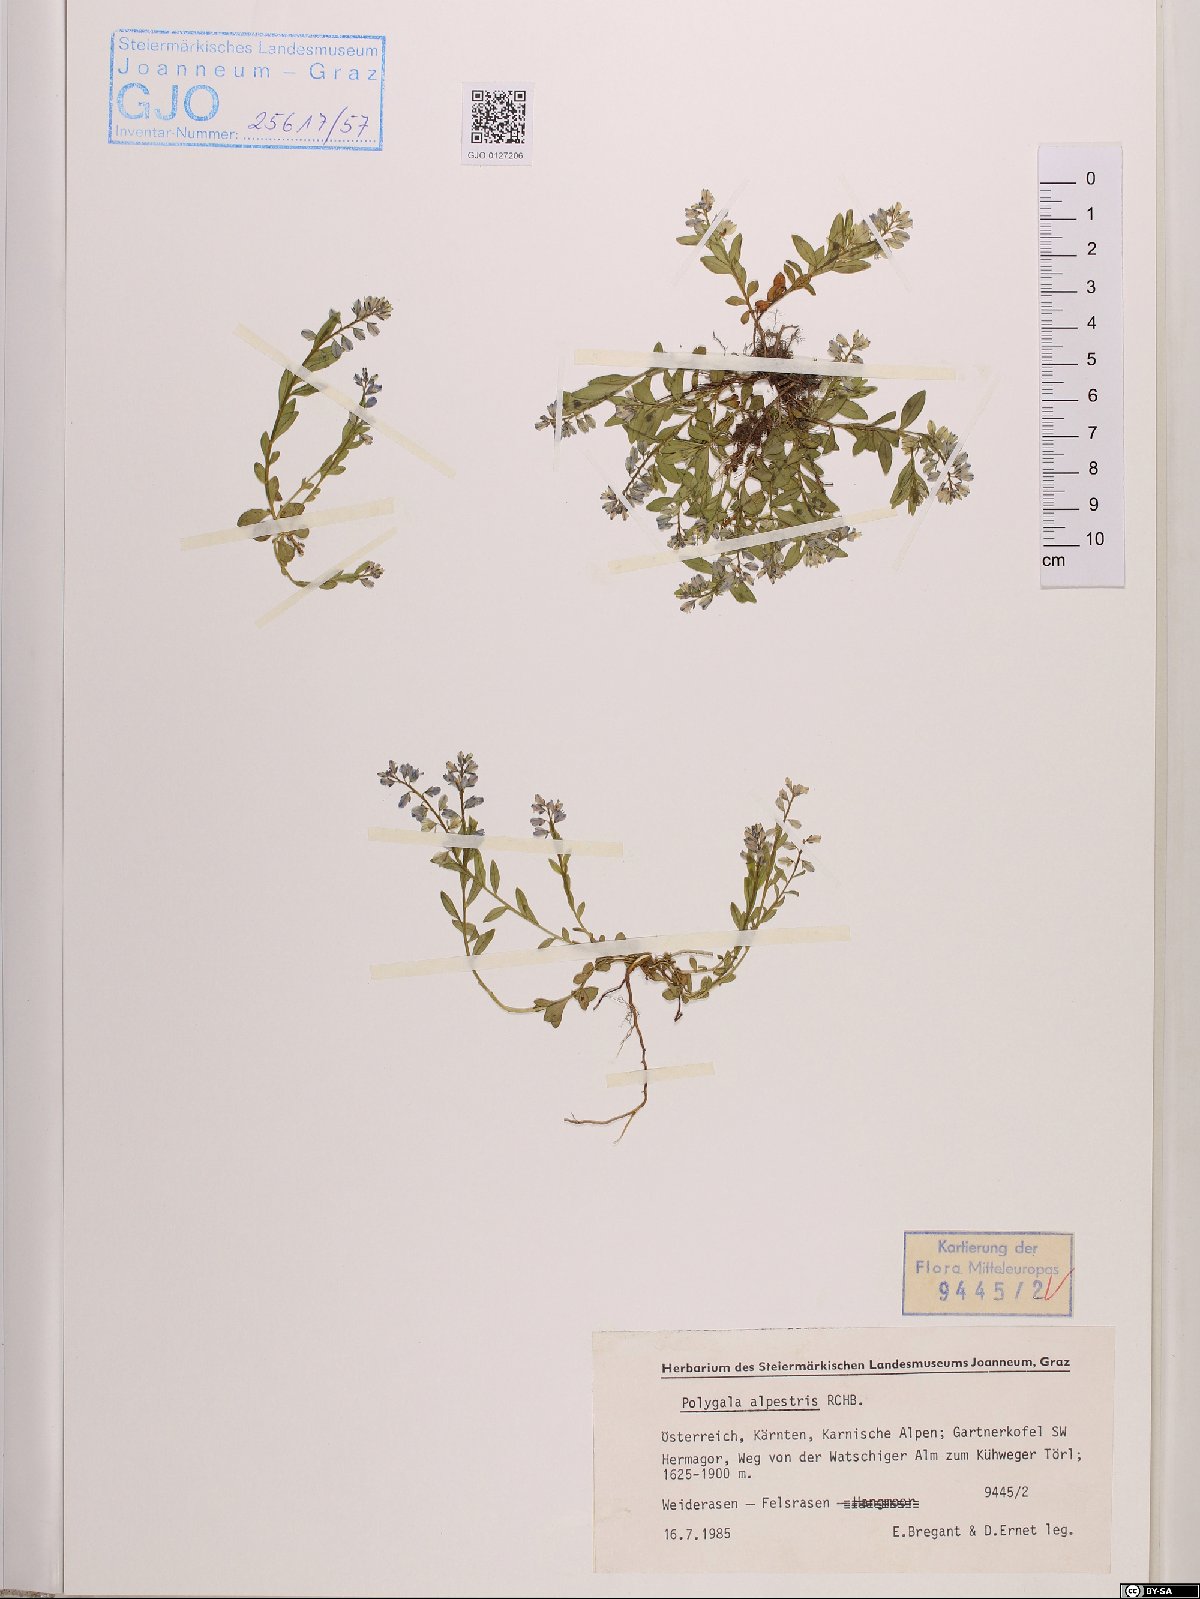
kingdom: Plantae
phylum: Tracheophyta
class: Magnoliopsida
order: Fabales
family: Polygalaceae
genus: Polygala
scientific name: Polygala alpestris
